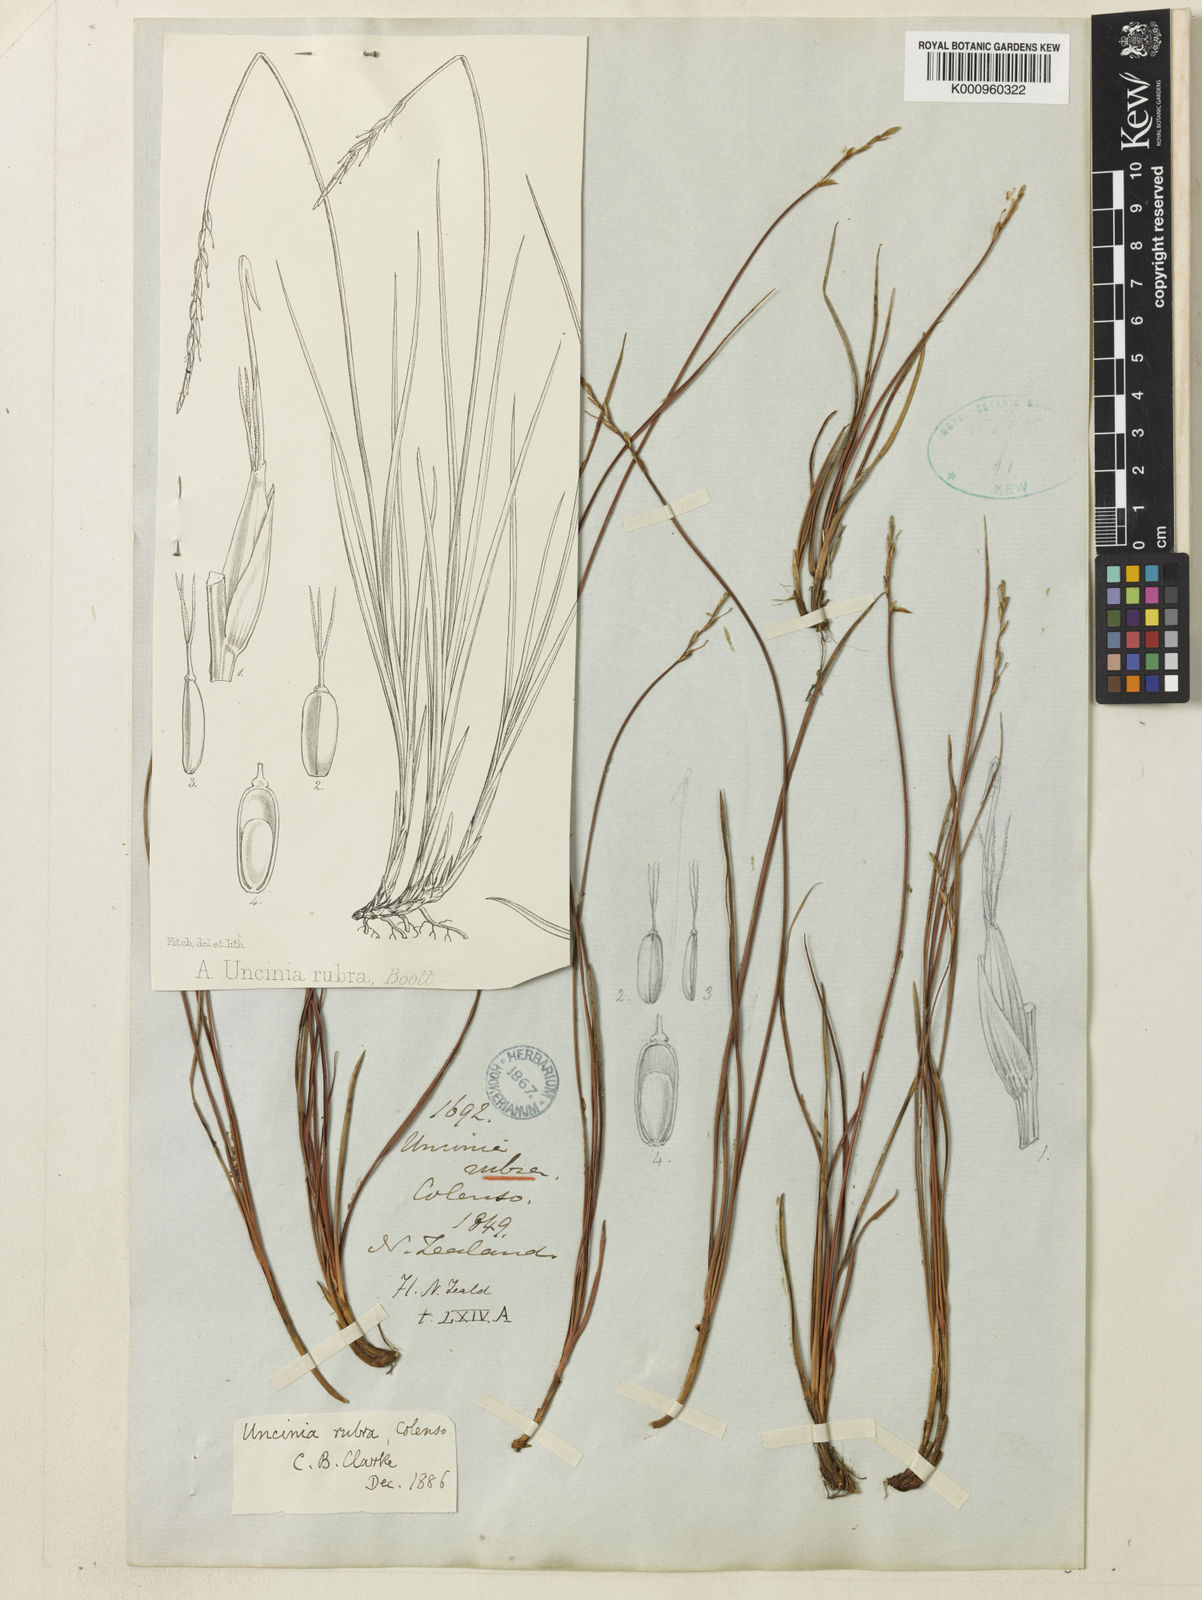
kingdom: Plantae
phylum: Tracheophyta
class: Liliopsida
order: Poales
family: Cyperaceae
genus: Carex
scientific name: Carex punicea
